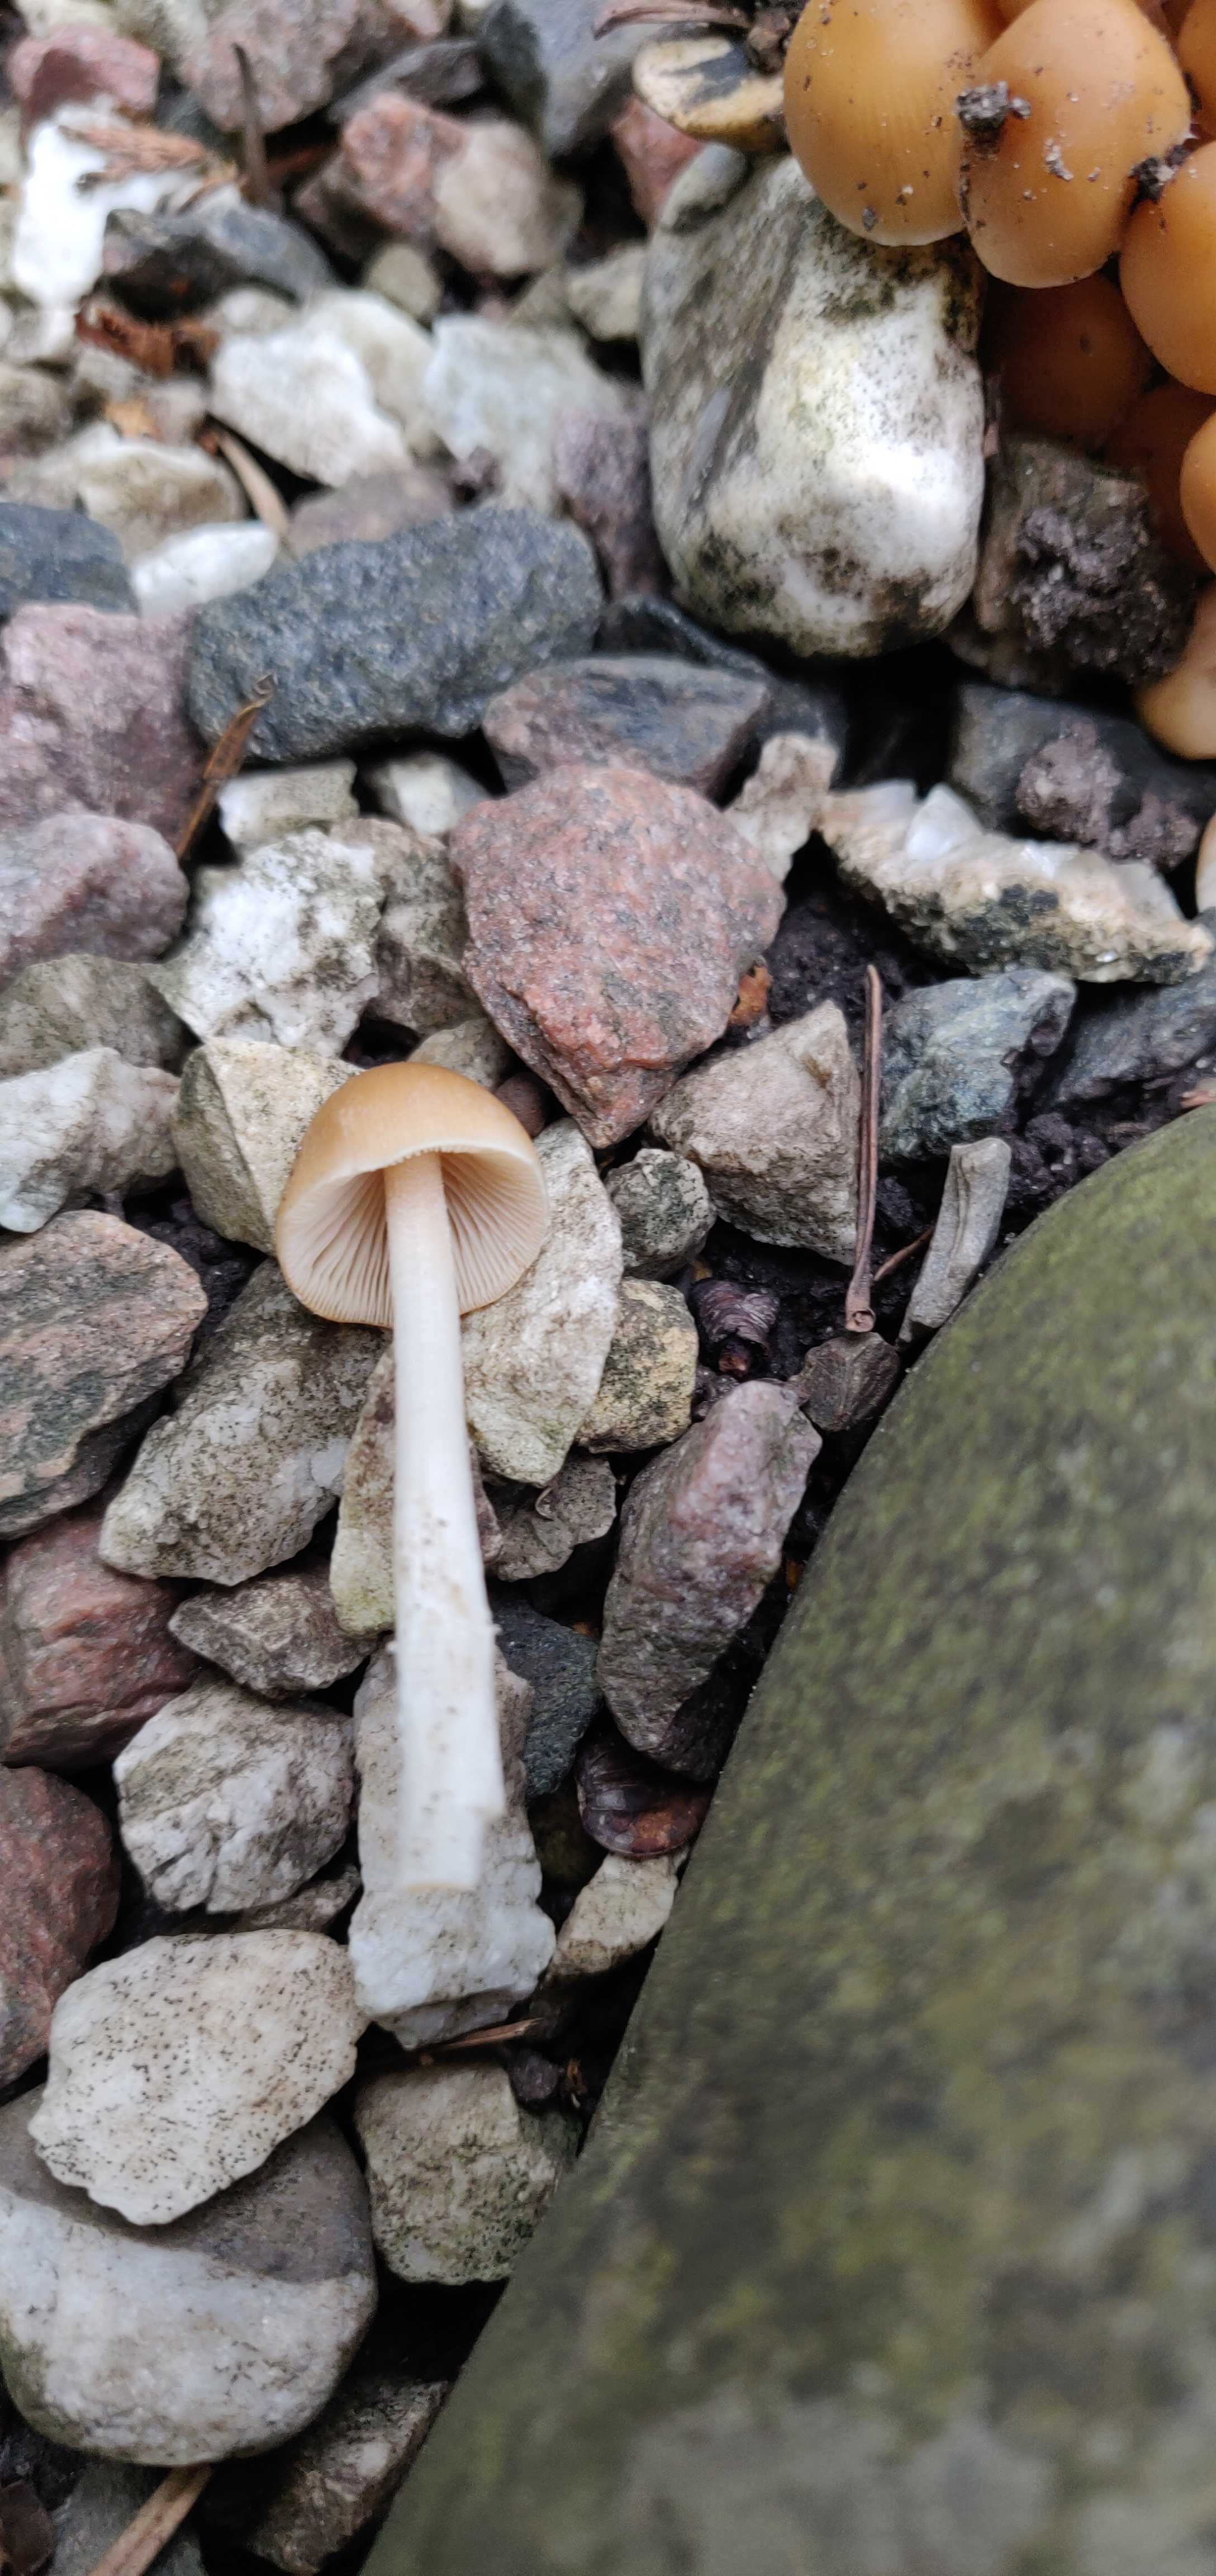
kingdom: Fungi
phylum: Basidiomycota
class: Agaricomycetes
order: Agaricales
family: Psathyrellaceae
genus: Britzelmayria
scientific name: Britzelmayria multipedata
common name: knippe-mørkhat
